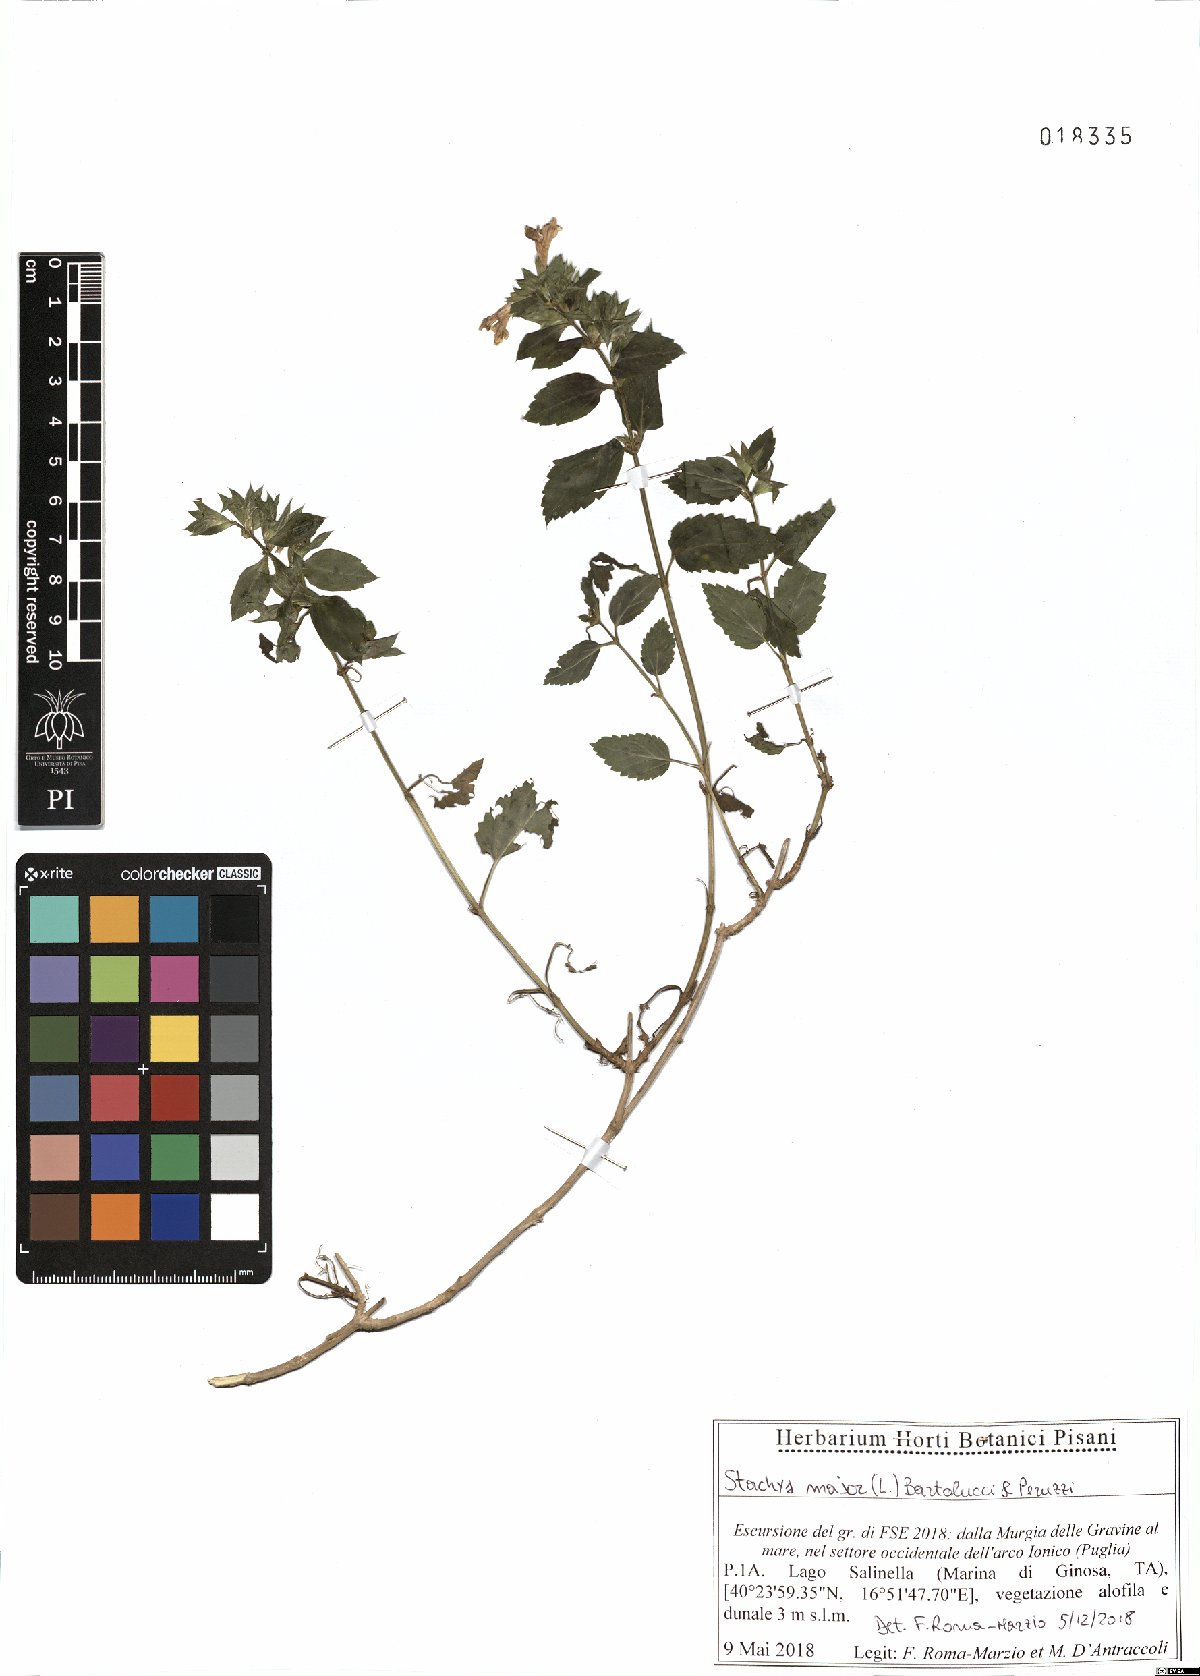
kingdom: Plantae
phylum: Tracheophyta
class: Magnoliopsida
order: Lamiales
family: Lamiaceae
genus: Prasium
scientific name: Prasium majus
